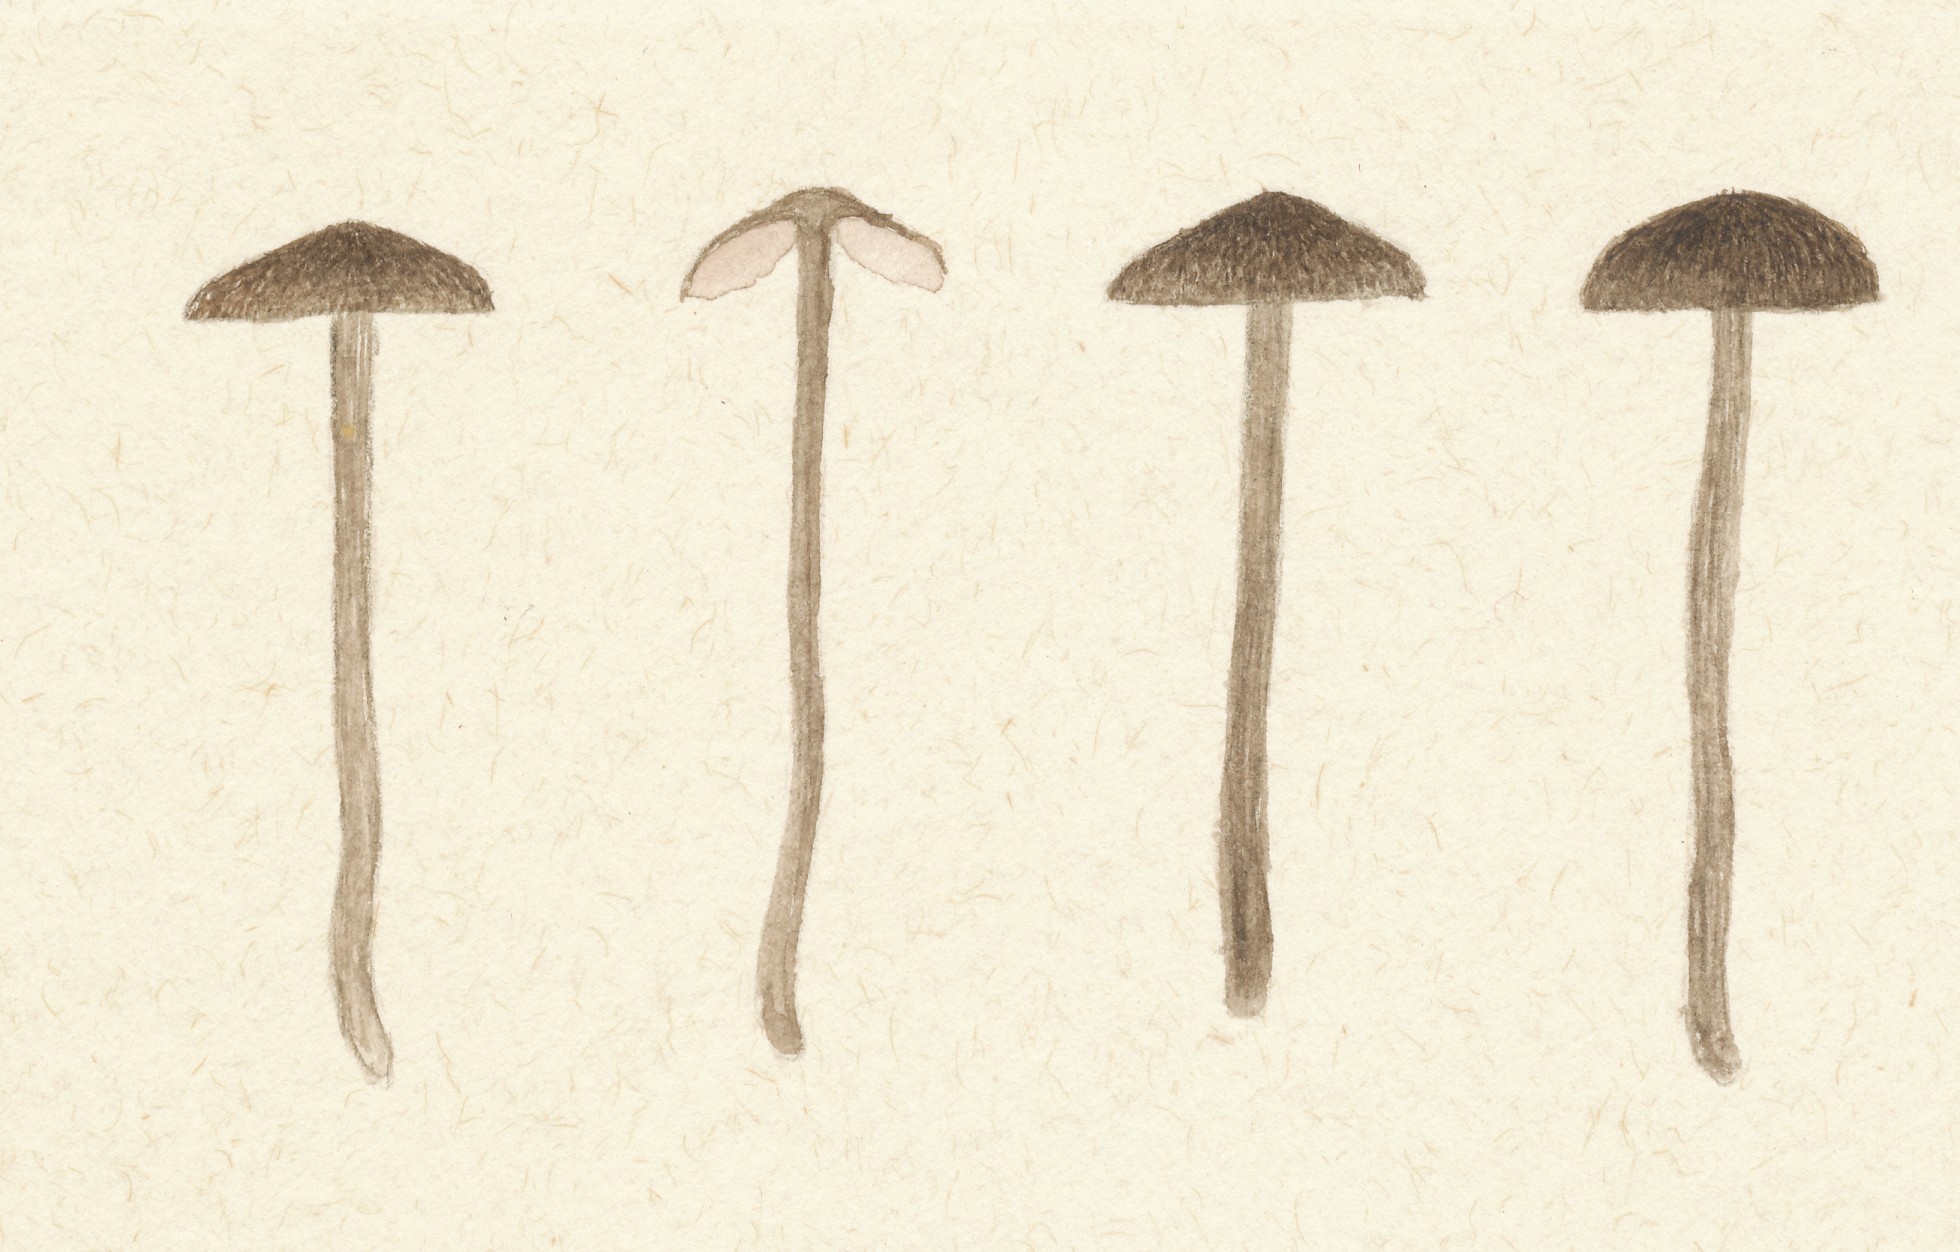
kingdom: Fungi
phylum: Basidiomycota
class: Agaricomycetes
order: Agaricales
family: Entolomataceae
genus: Entoloma
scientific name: Entoloma hispidulum
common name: småskællet rødblad
